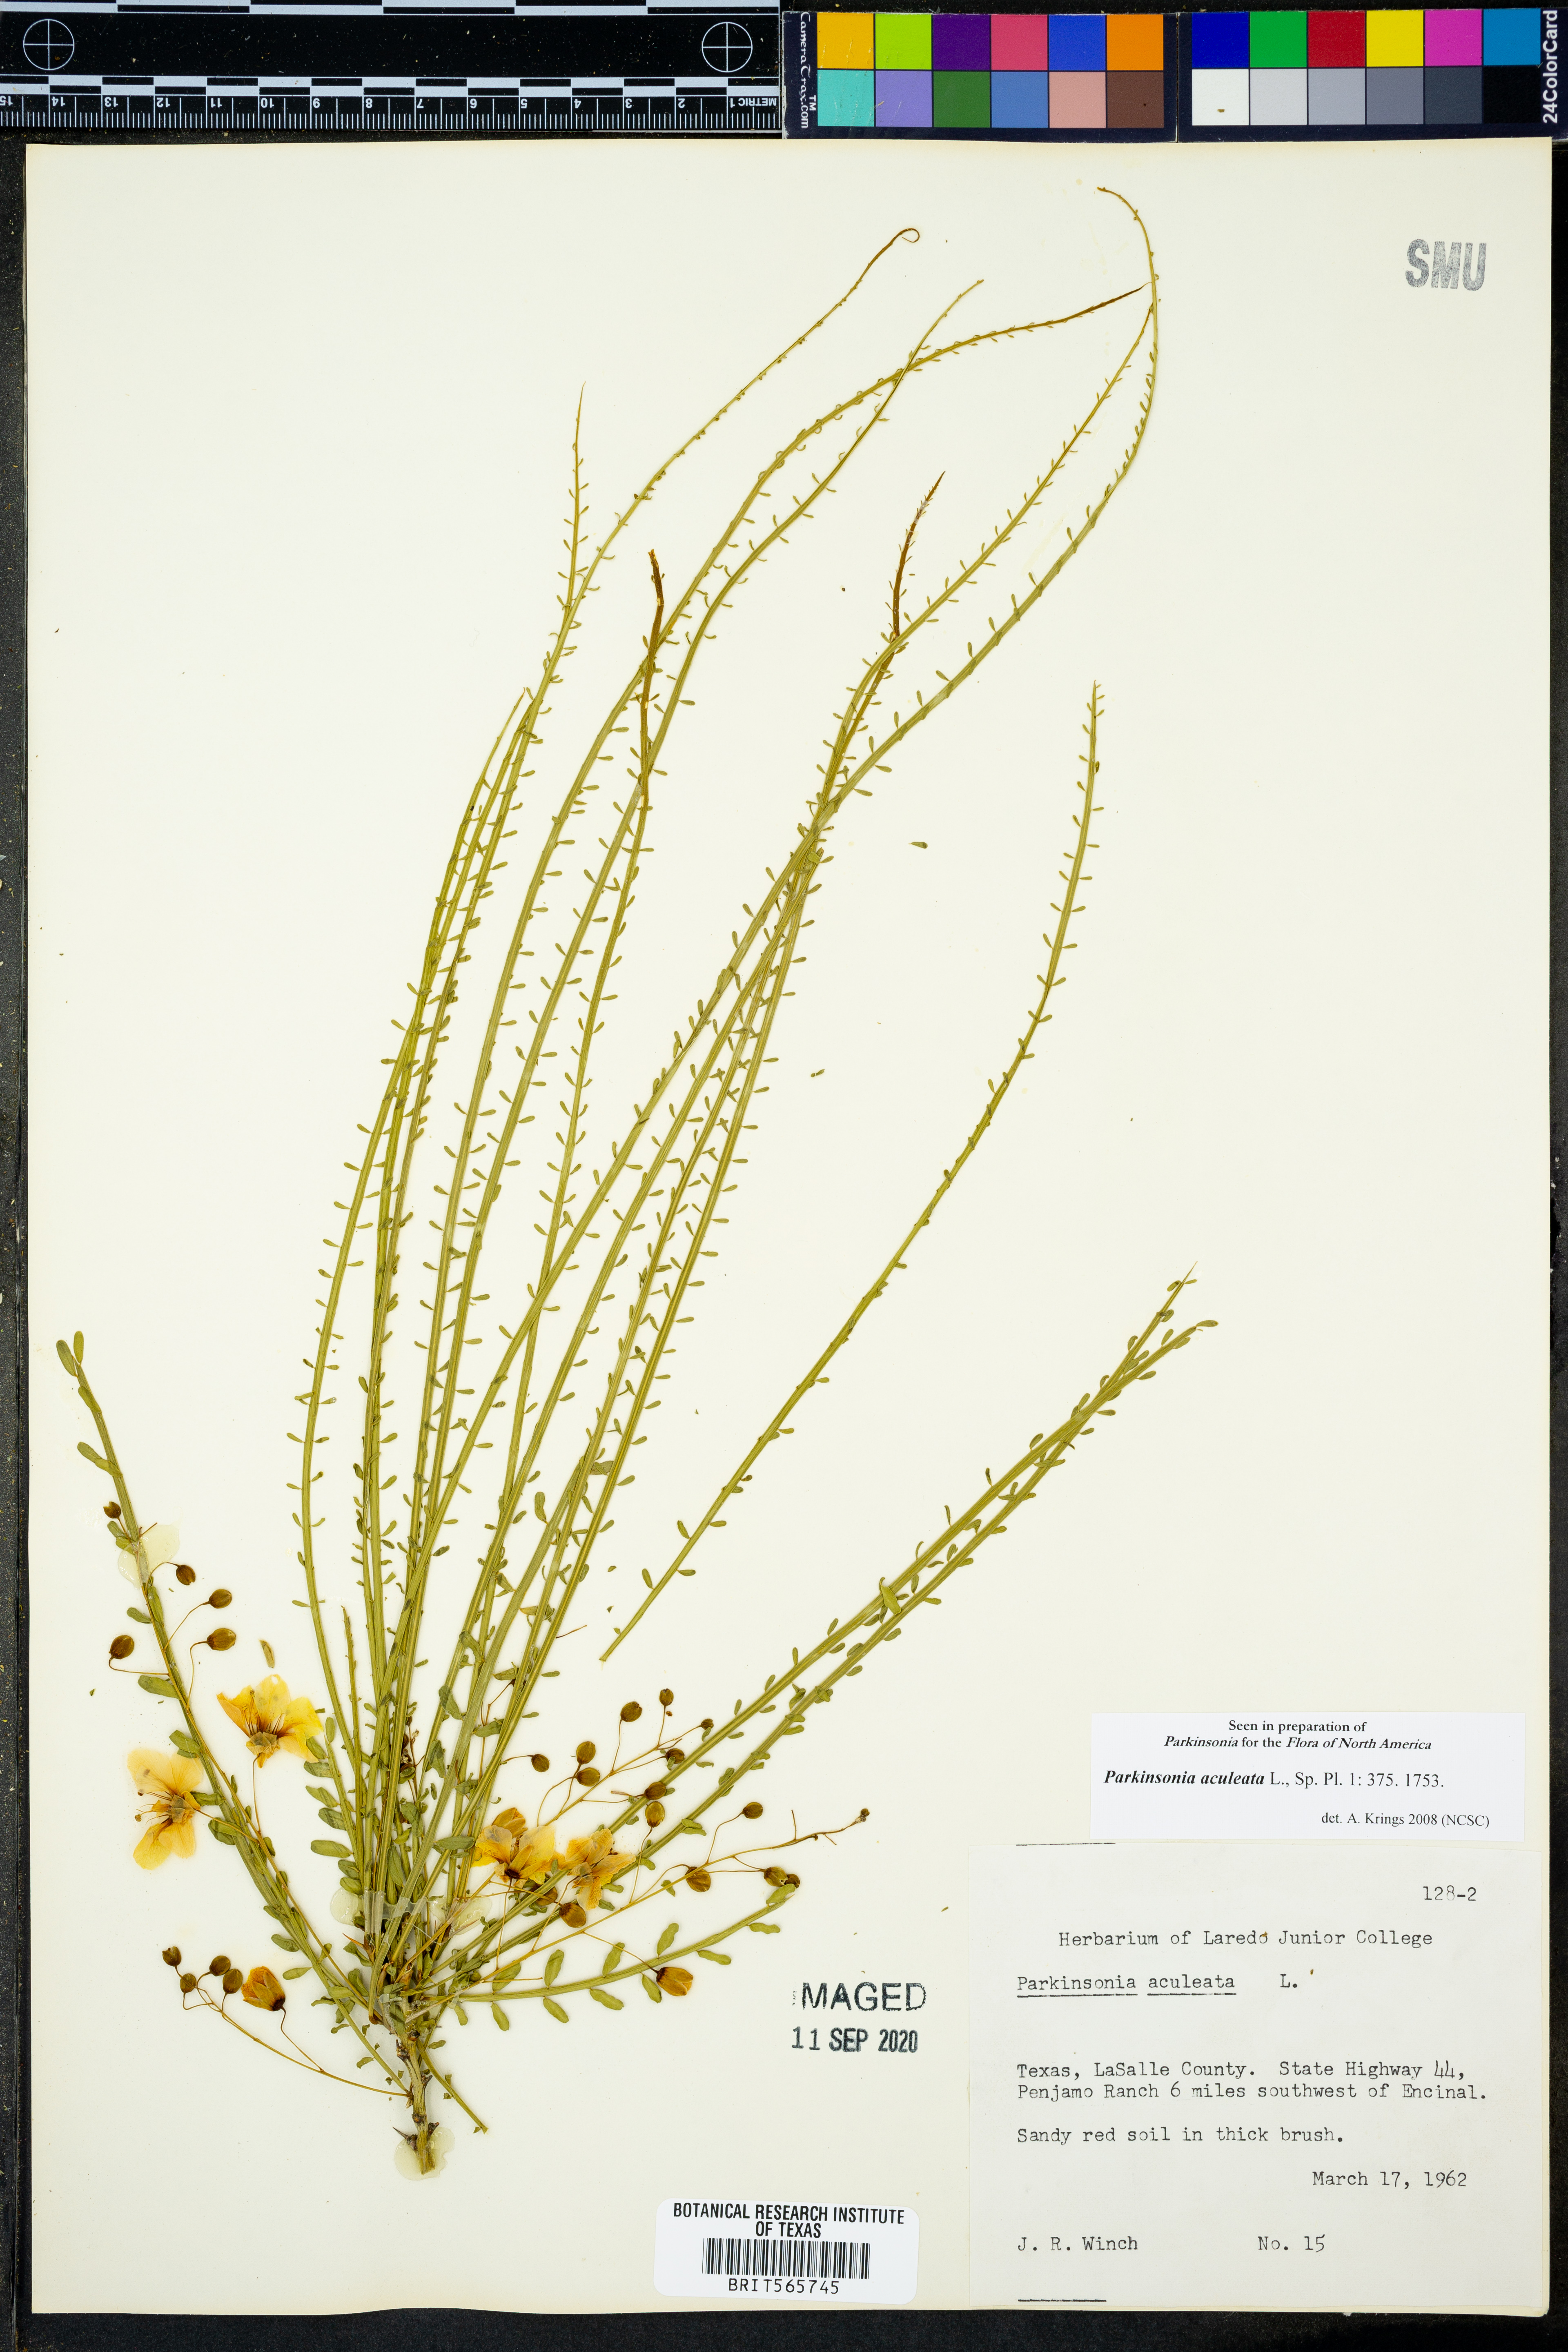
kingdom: Plantae
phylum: Tracheophyta
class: Magnoliopsida
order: Fabales
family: Fabaceae
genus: Parkinsonia
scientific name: Parkinsonia aculeata
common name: Jerusalem thorn
